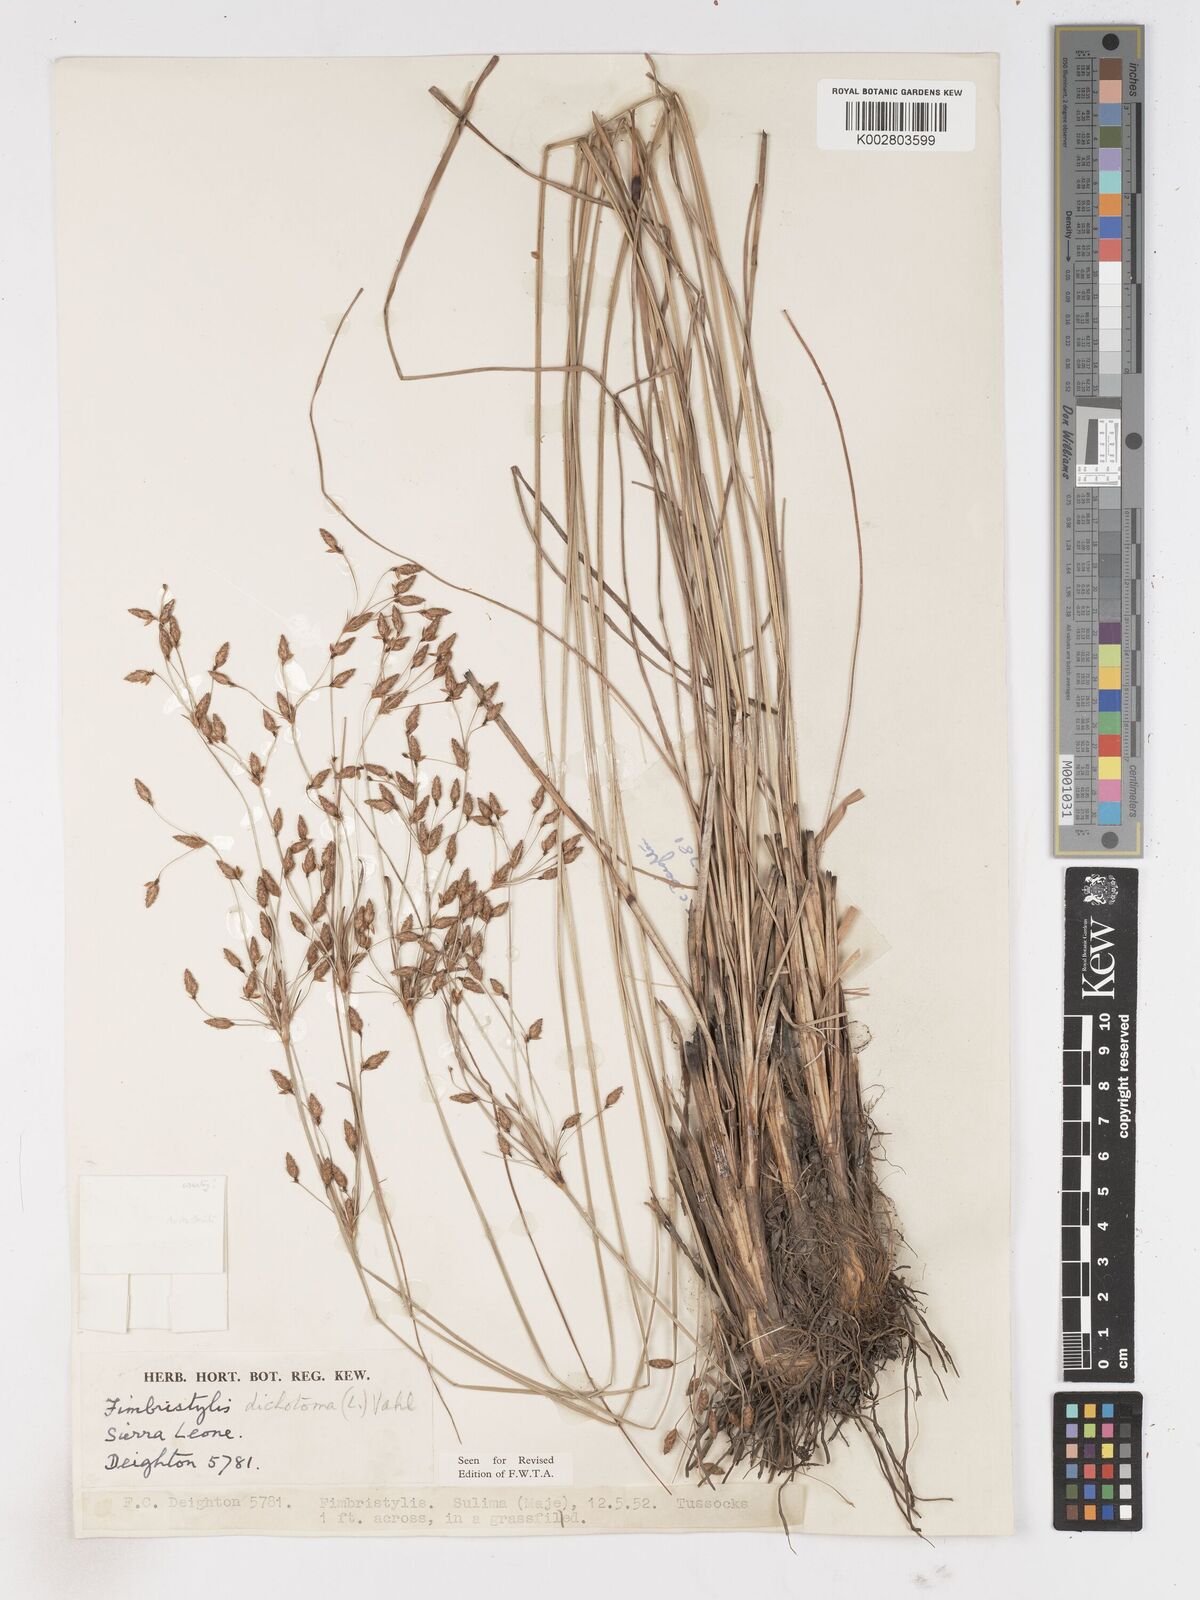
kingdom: Plantae
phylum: Tracheophyta
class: Liliopsida
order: Poales
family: Cyperaceae
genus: Fimbristylis
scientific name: Fimbristylis dichotoma
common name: Forked fimbry
